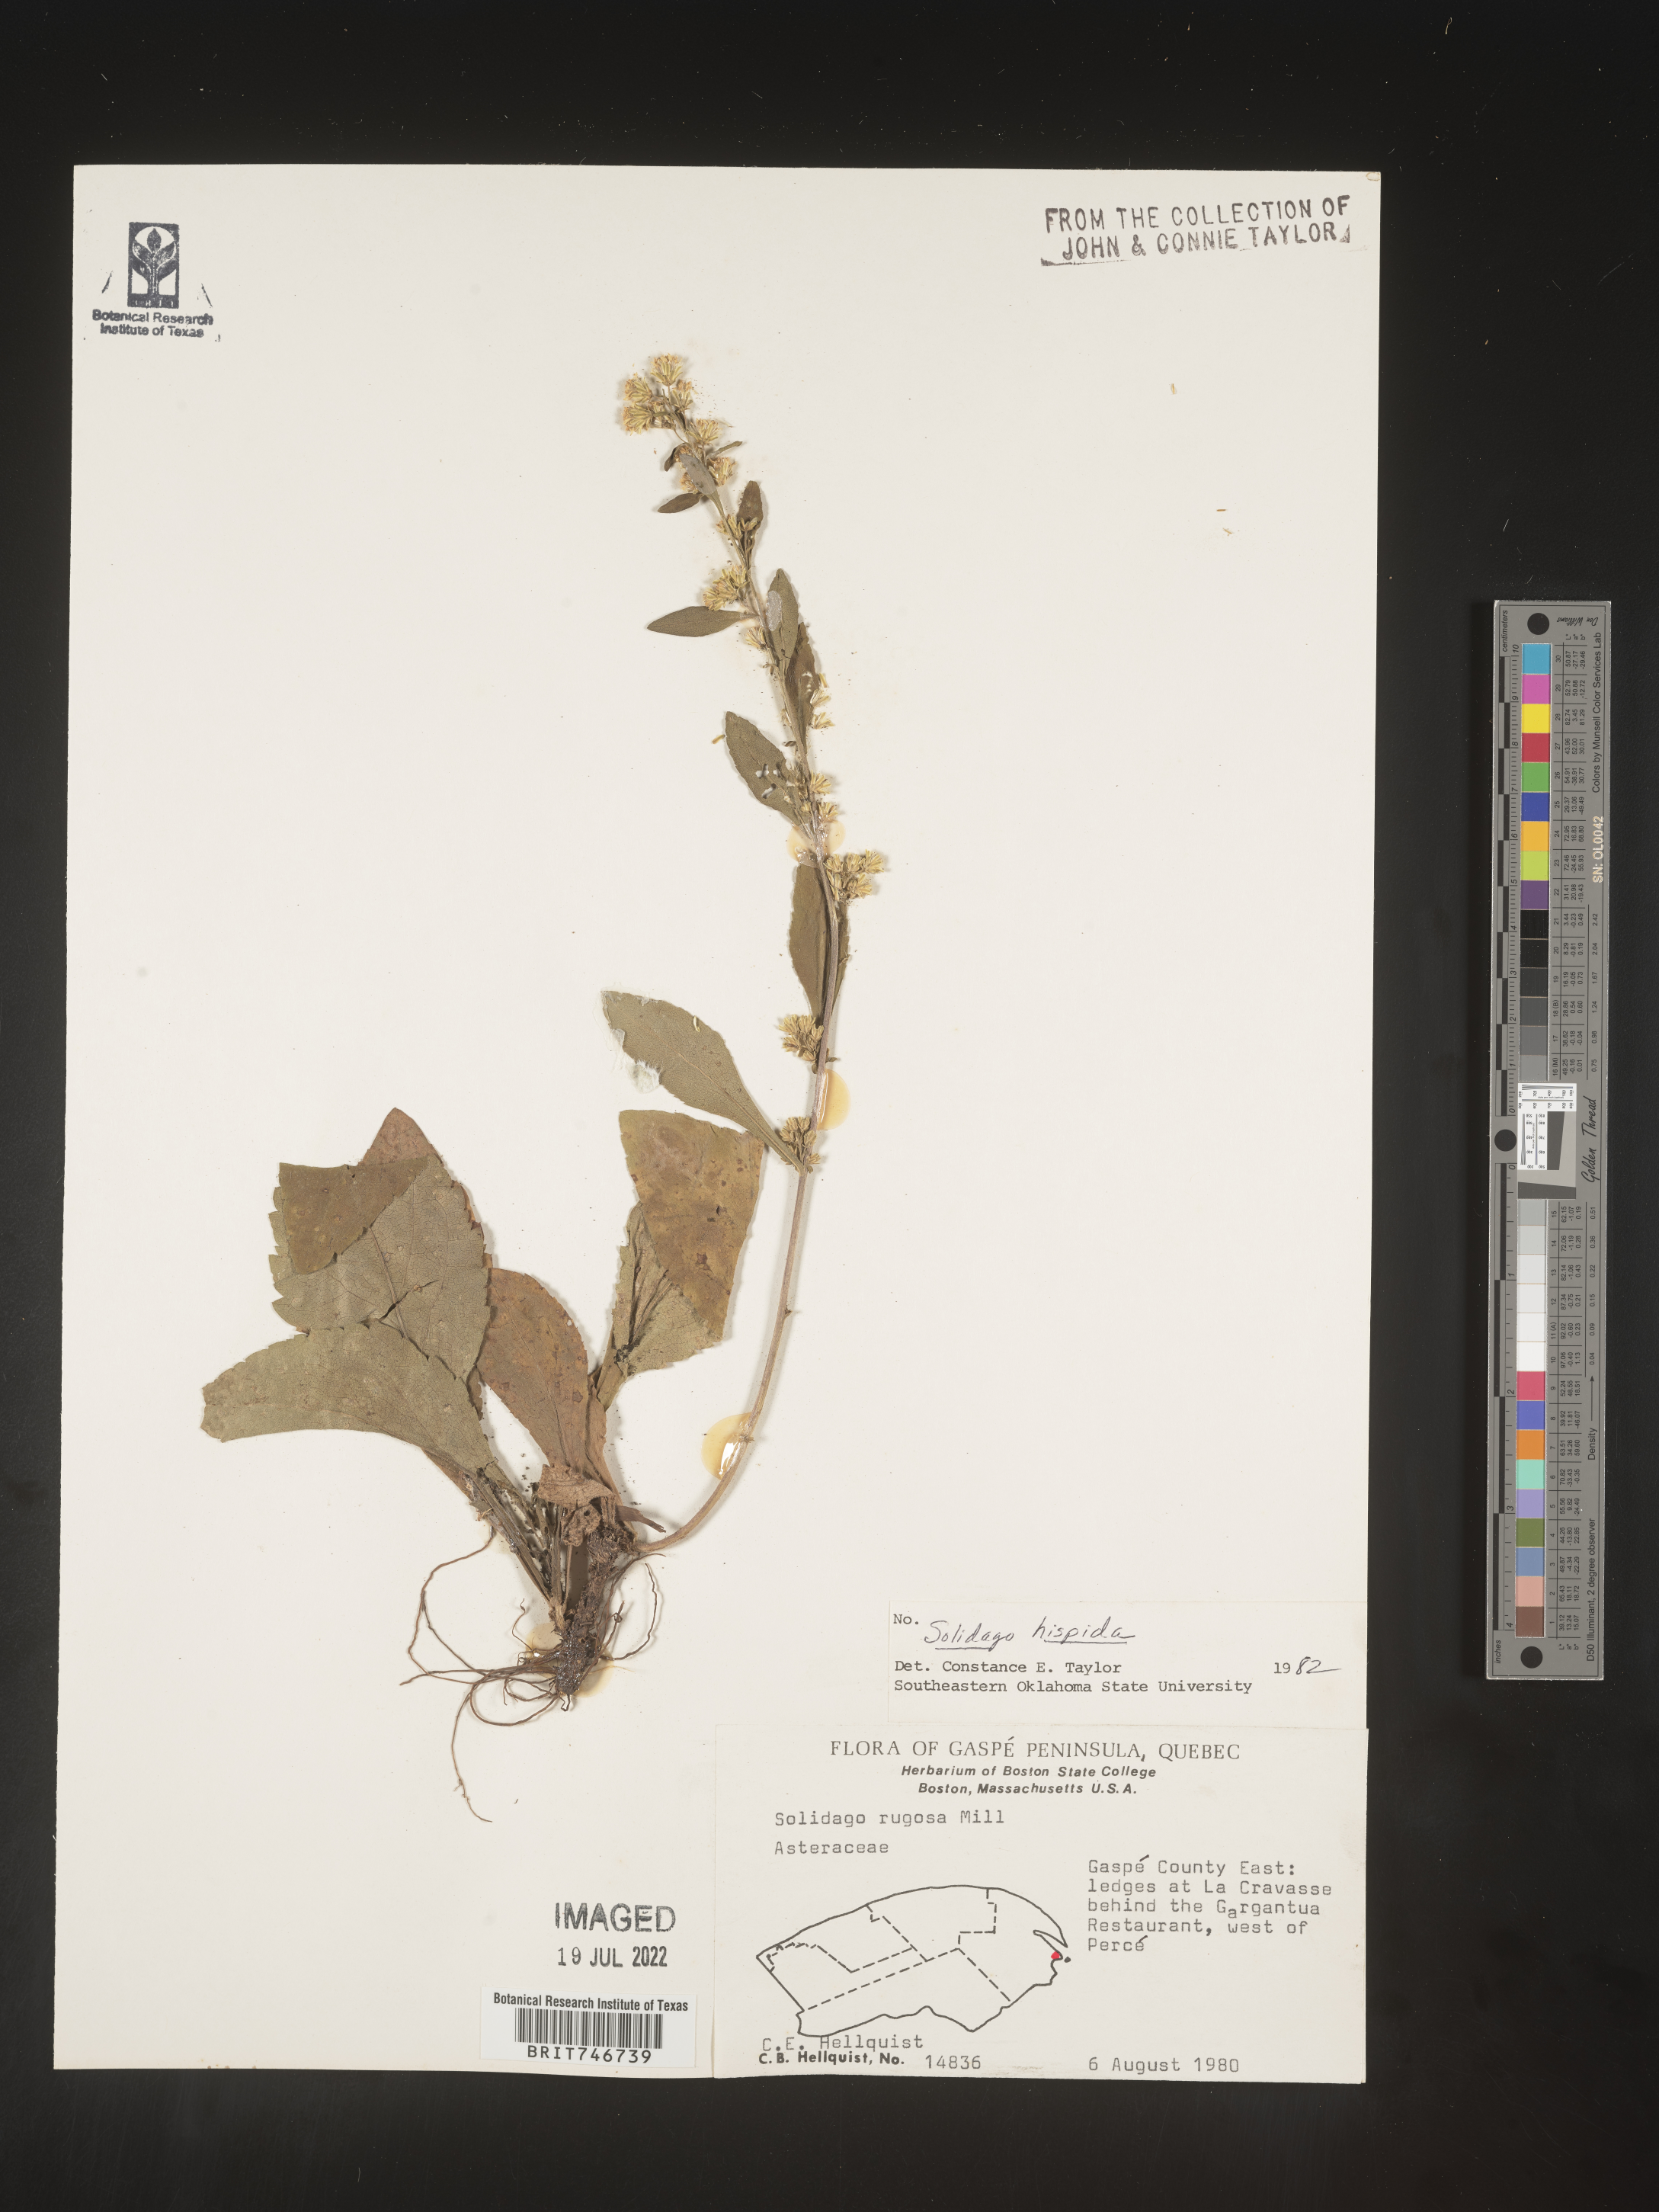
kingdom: Plantae
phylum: Tracheophyta
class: Magnoliopsida
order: Asterales
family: Asteraceae
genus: Solidago
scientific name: Solidago hispida
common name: Hairy goldenrod
